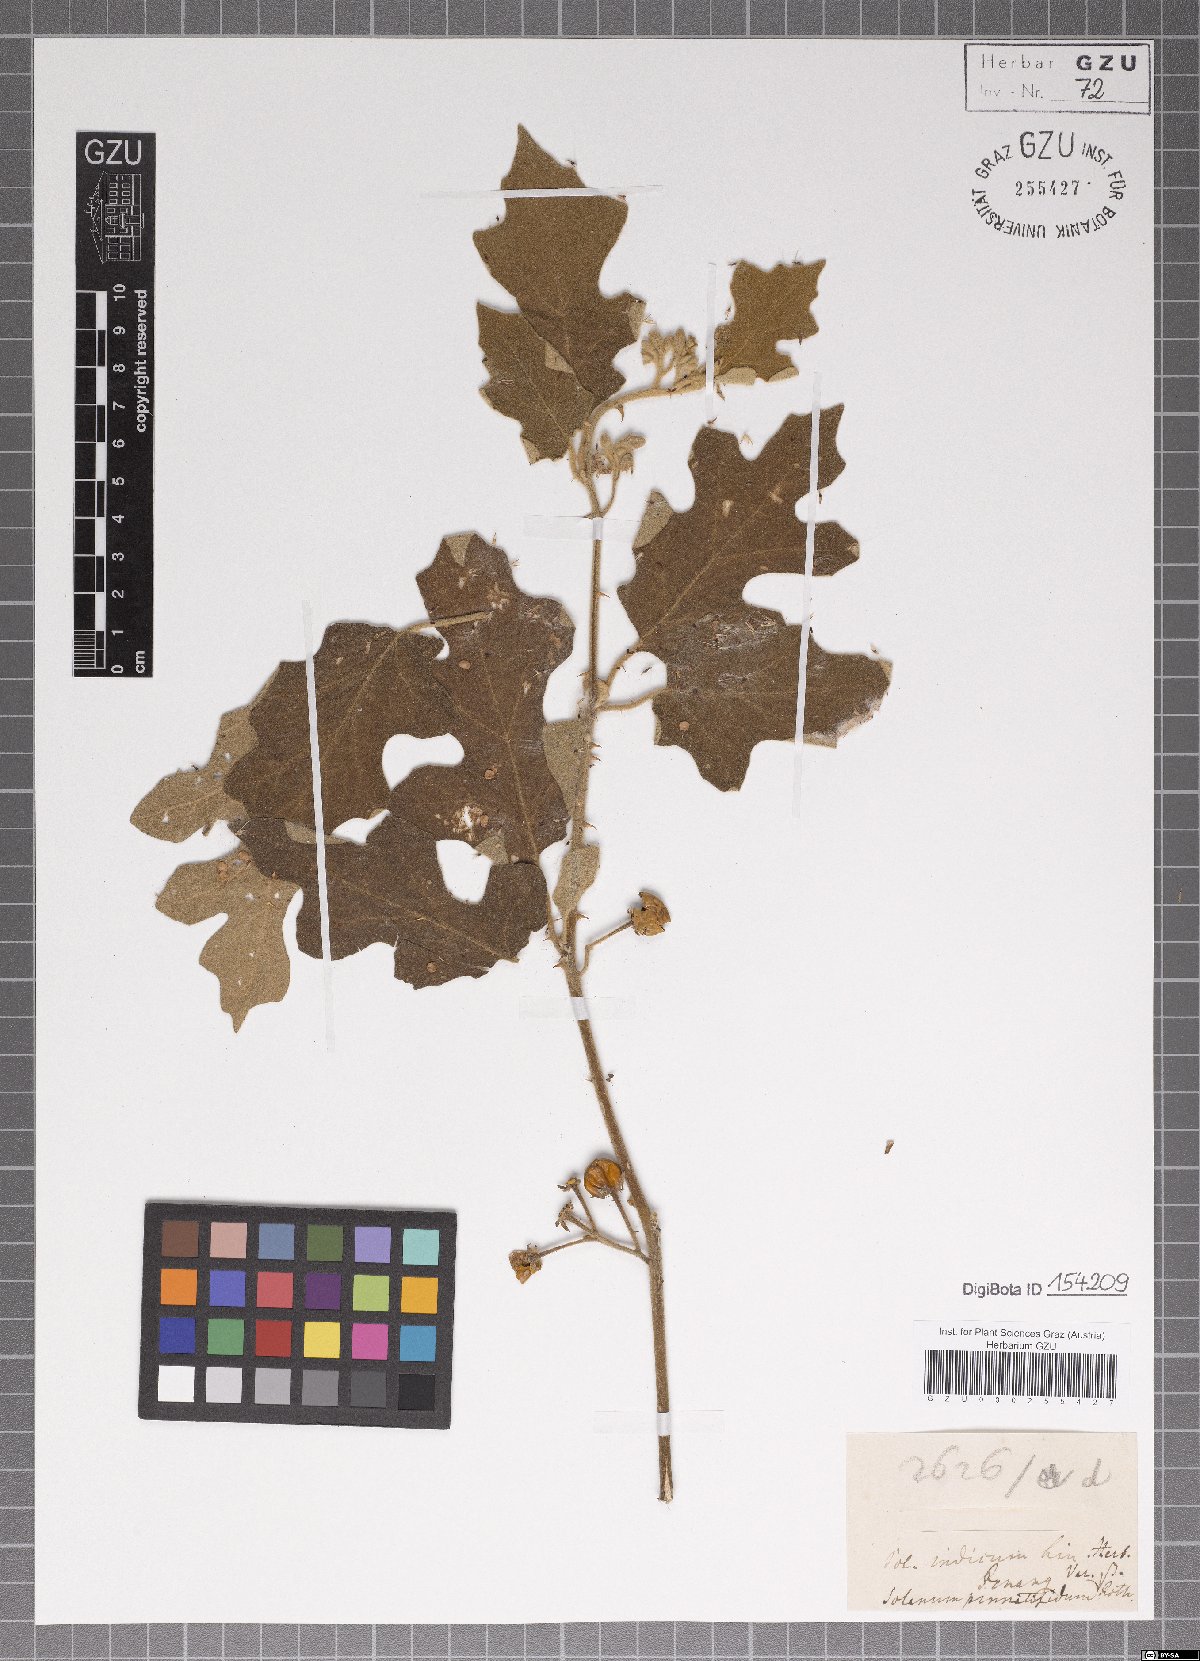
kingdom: Plantae
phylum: Tracheophyta
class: Magnoliopsida
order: Solanales
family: Solanaceae
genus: Solanum
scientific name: Solanum violaceum
